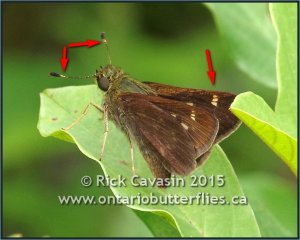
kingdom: Animalia
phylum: Arthropoda
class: Insecta
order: Lepidoptera
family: Hesperiidae
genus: Vernia
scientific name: Vernia verna
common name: Little Glassywing
